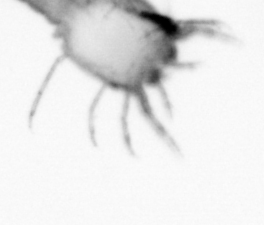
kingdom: Animalia
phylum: Arthropoda
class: Copepoda
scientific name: Copepoda
